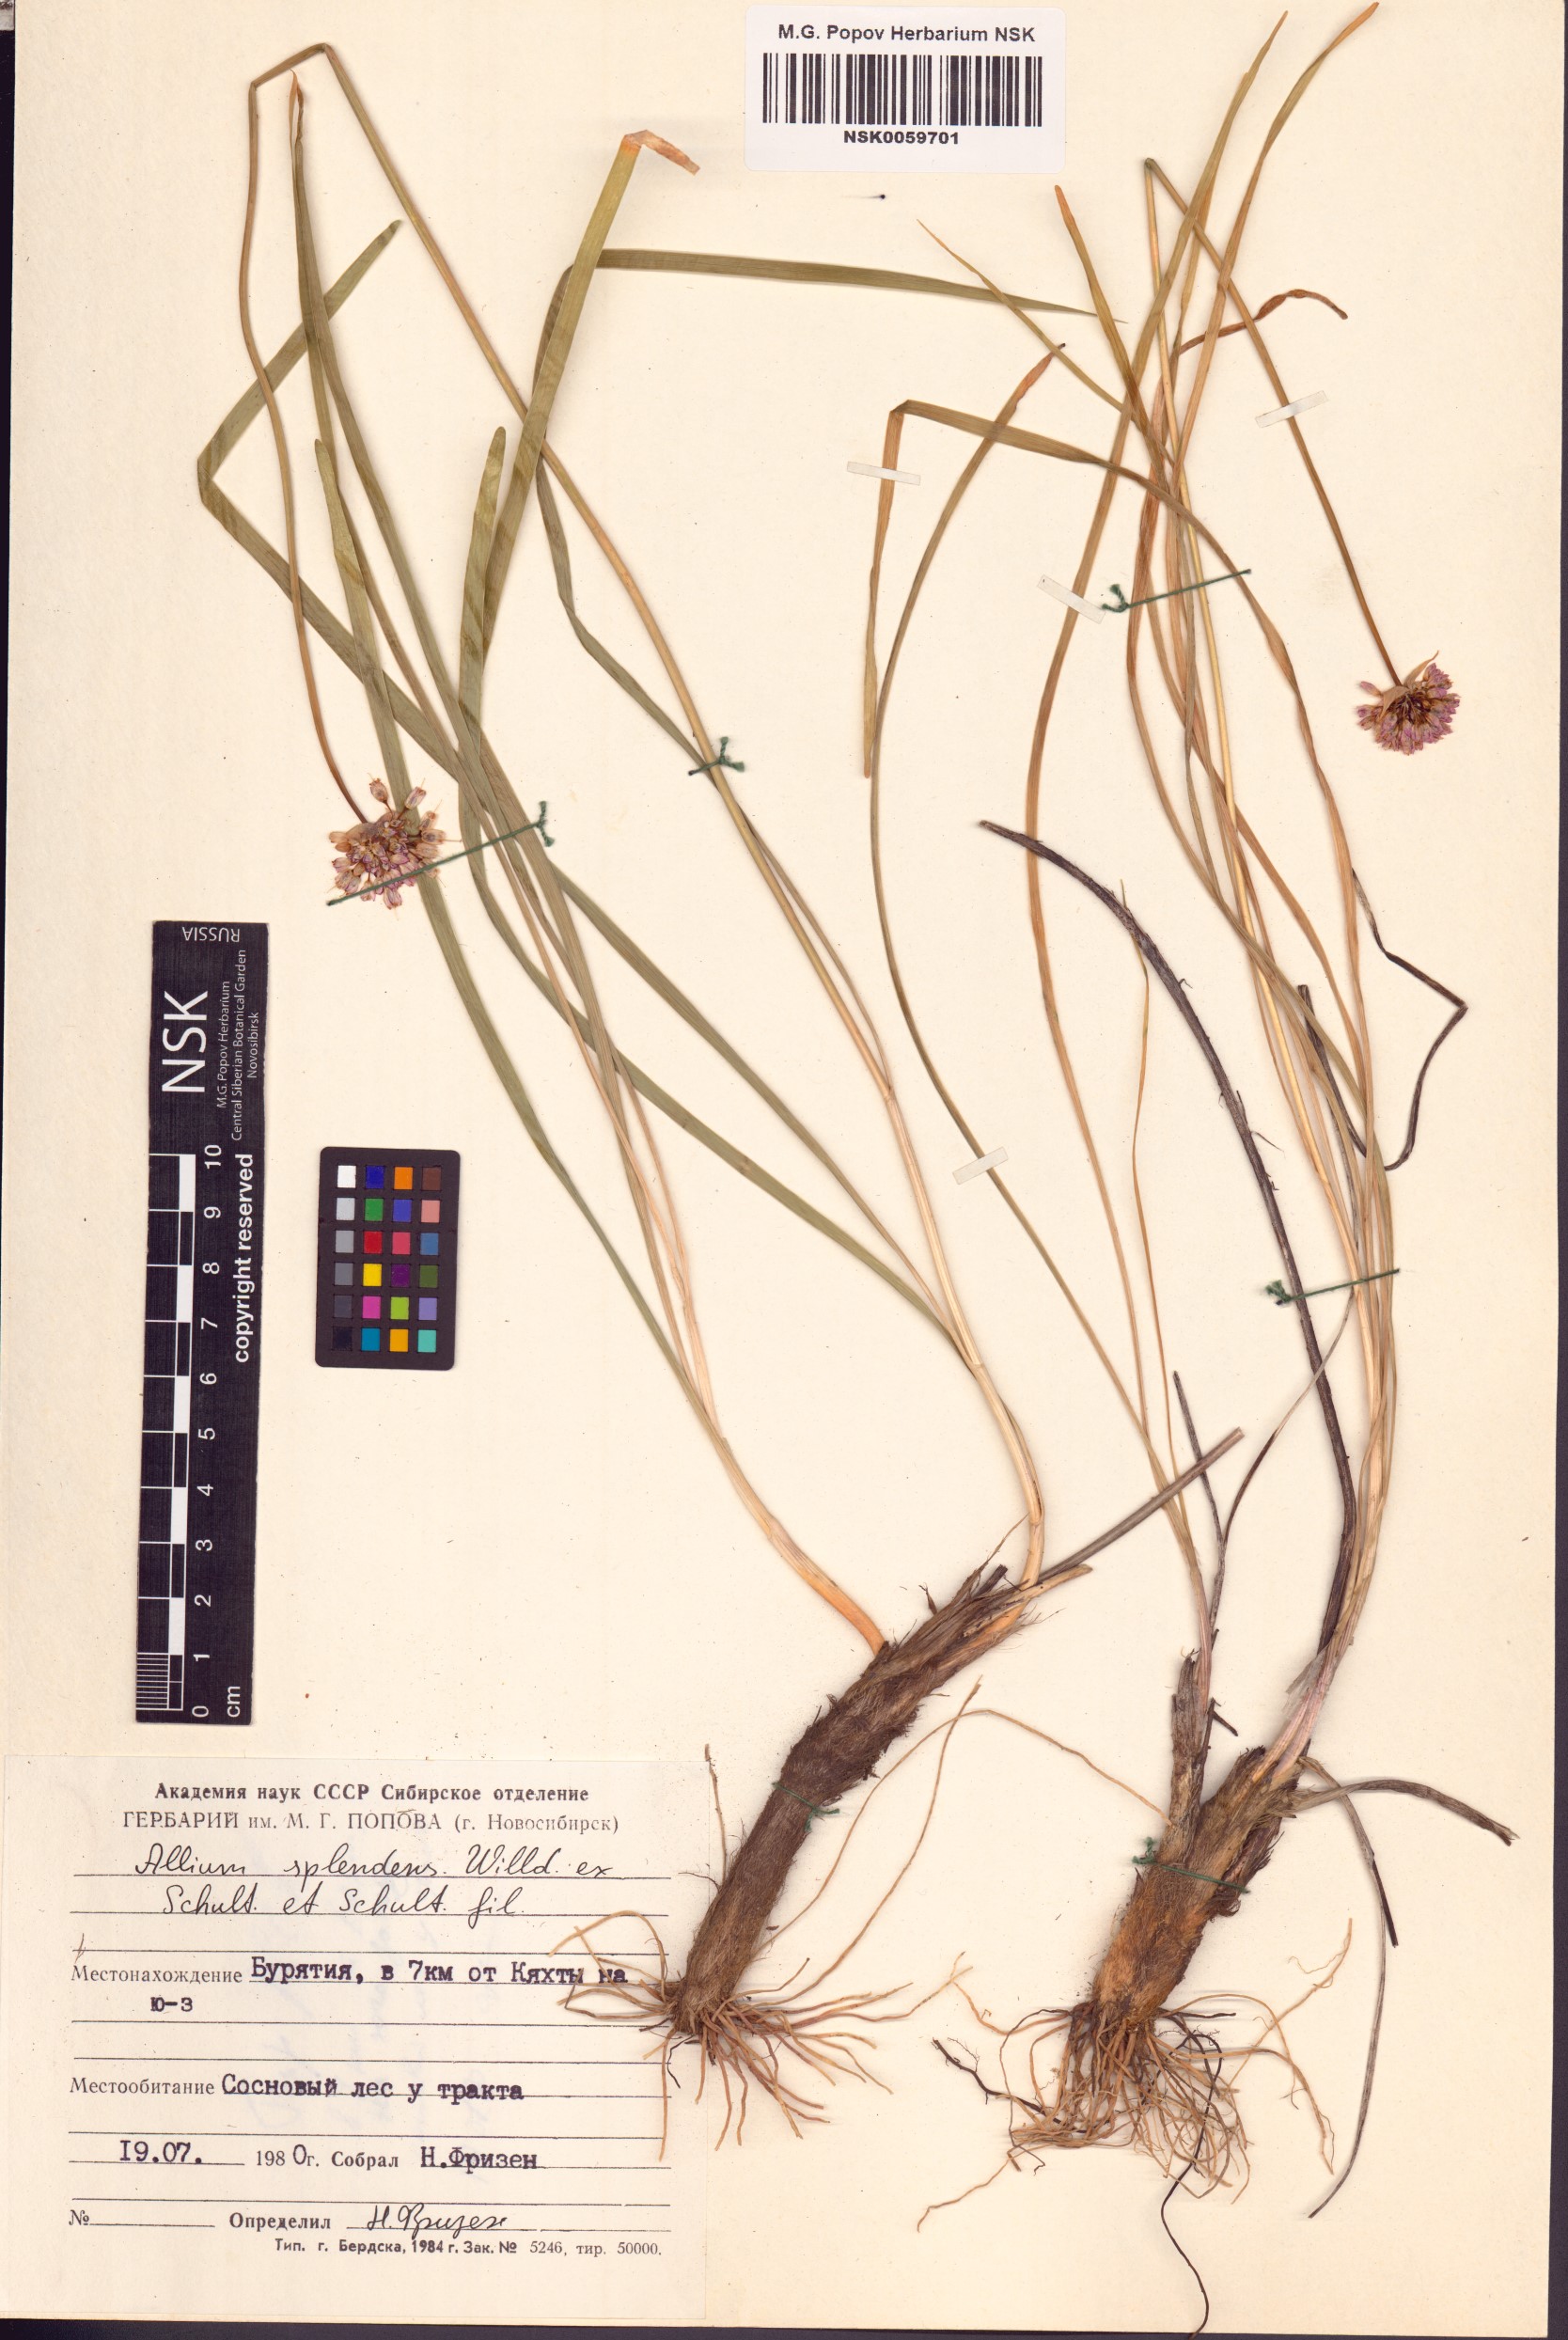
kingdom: Plantae
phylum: Tracheophyta
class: Liliopsida
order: Asparagales
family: Amaryllidaceae
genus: Allium
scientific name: Allium splendens
